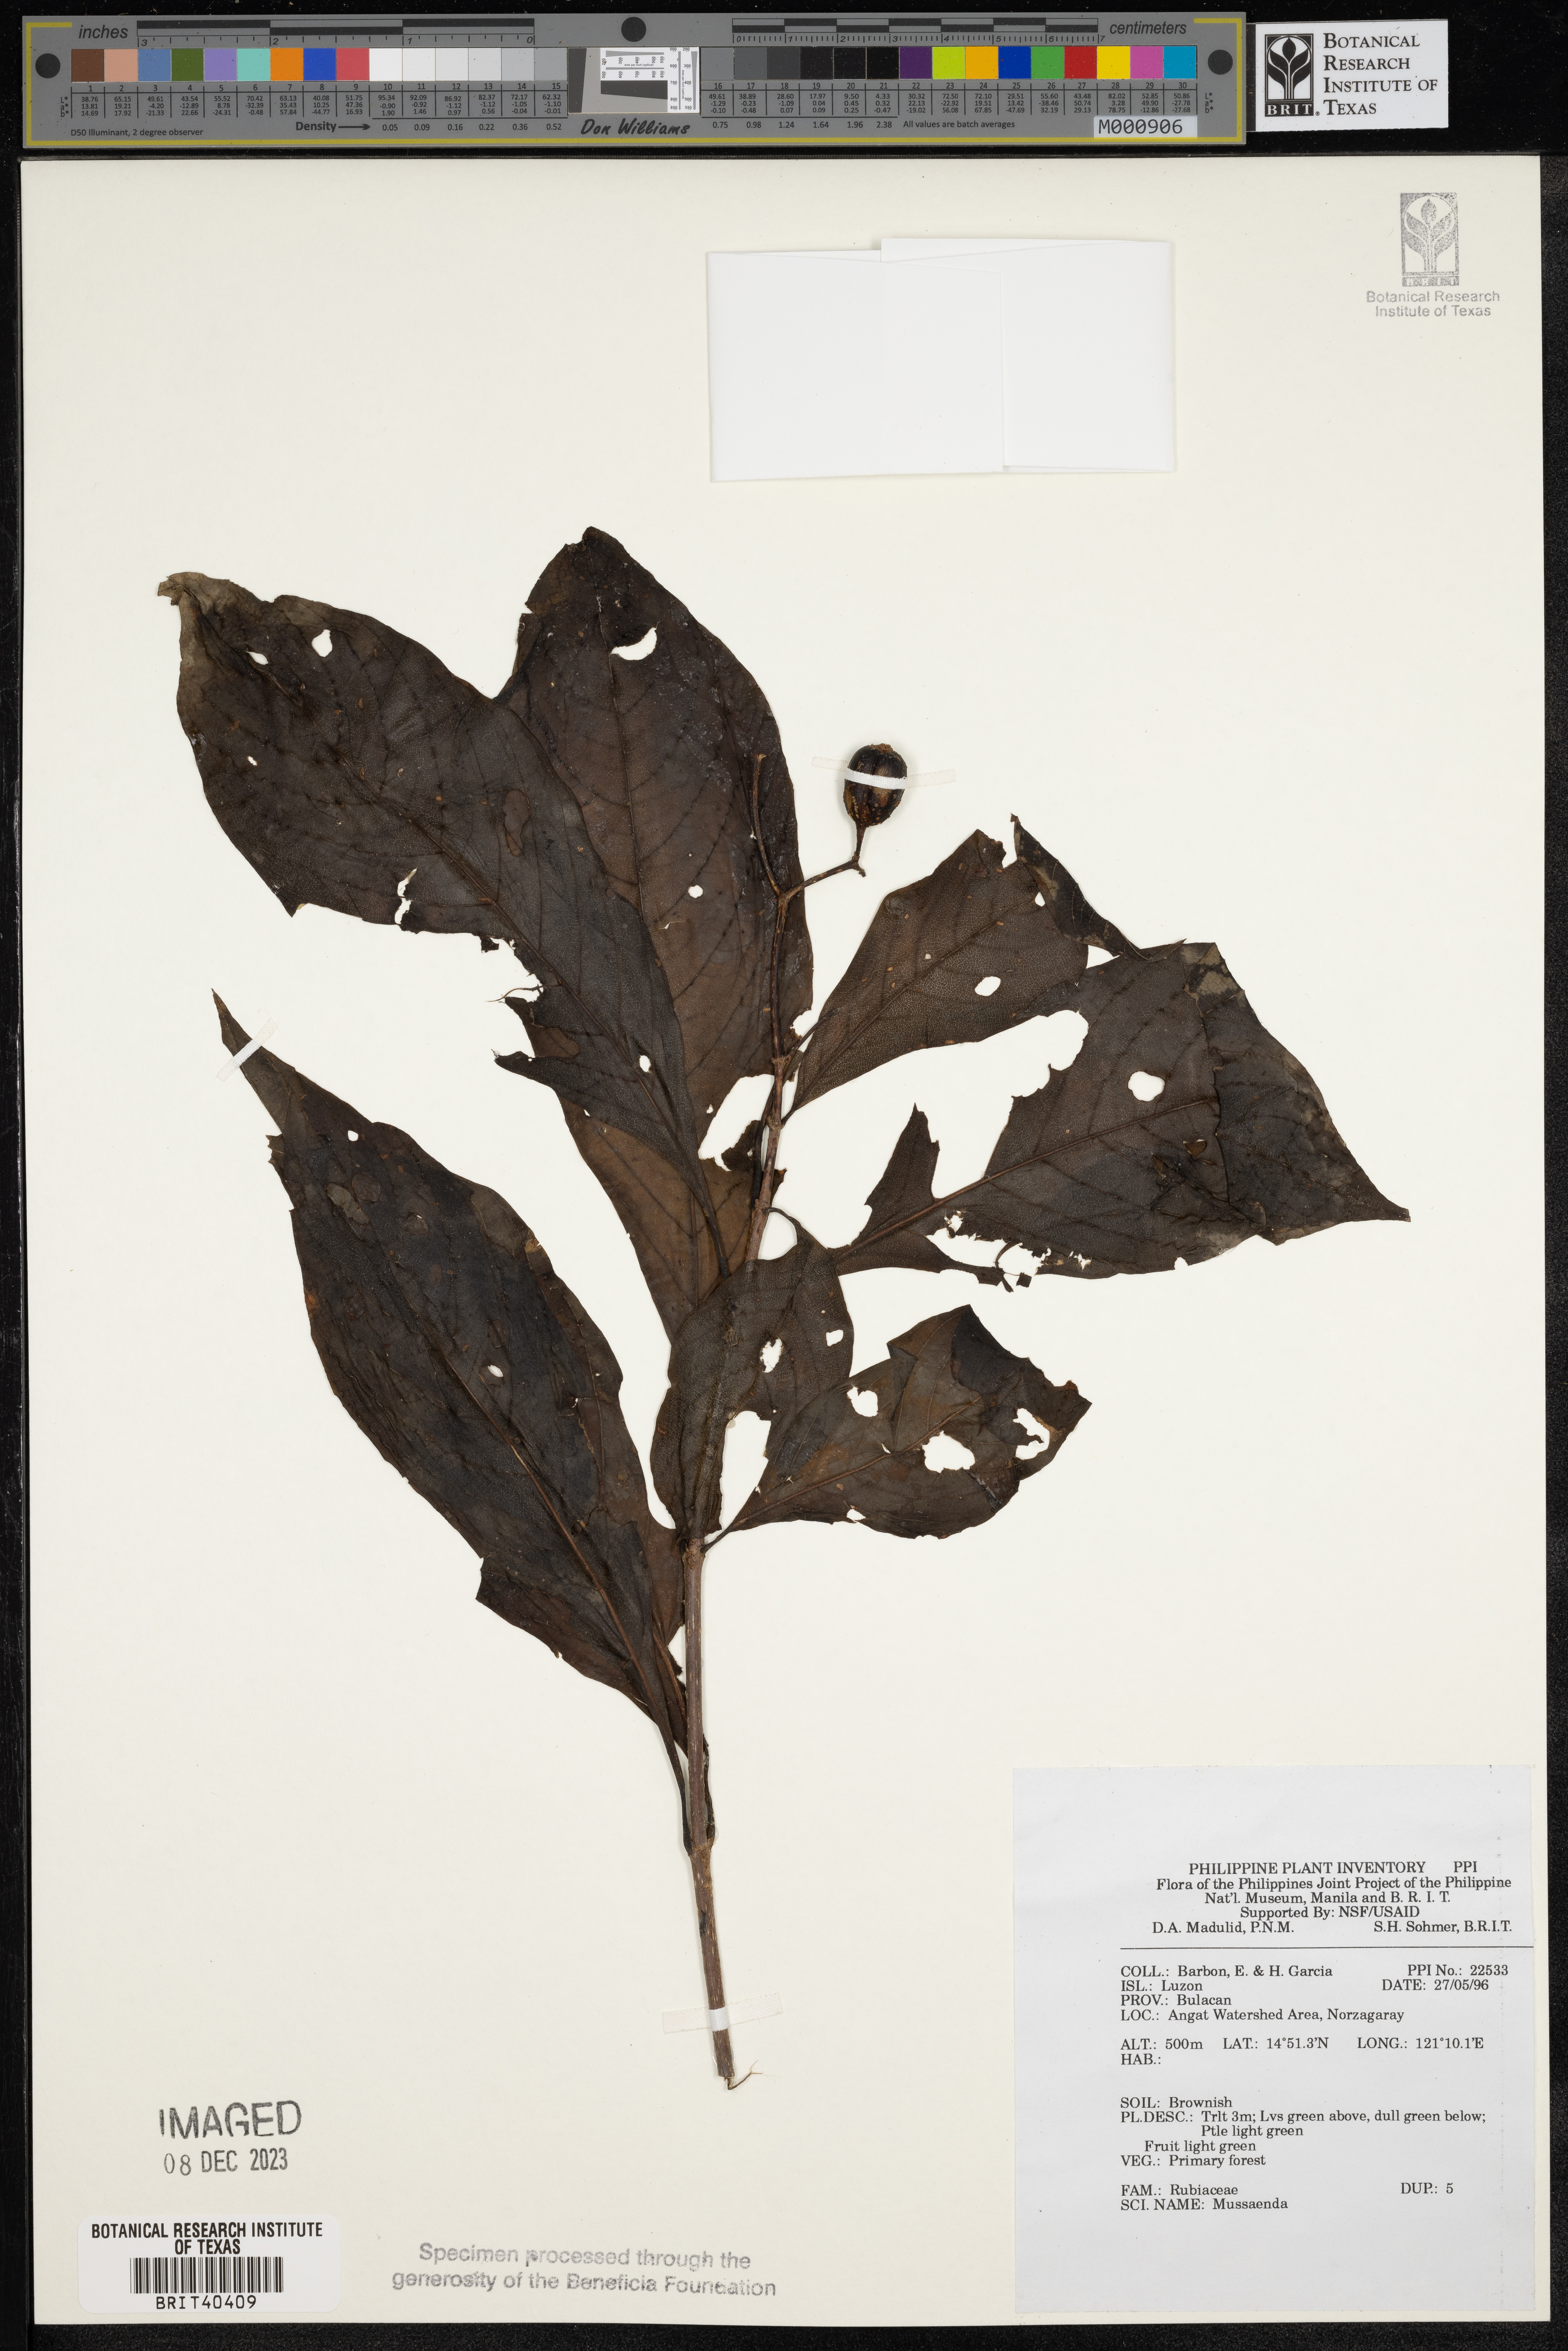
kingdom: Plantae
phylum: Tracheophyta
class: Magnoliopsida
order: Gentianales
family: Rubiaceae
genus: Mussaenda
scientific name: Mussaenda
